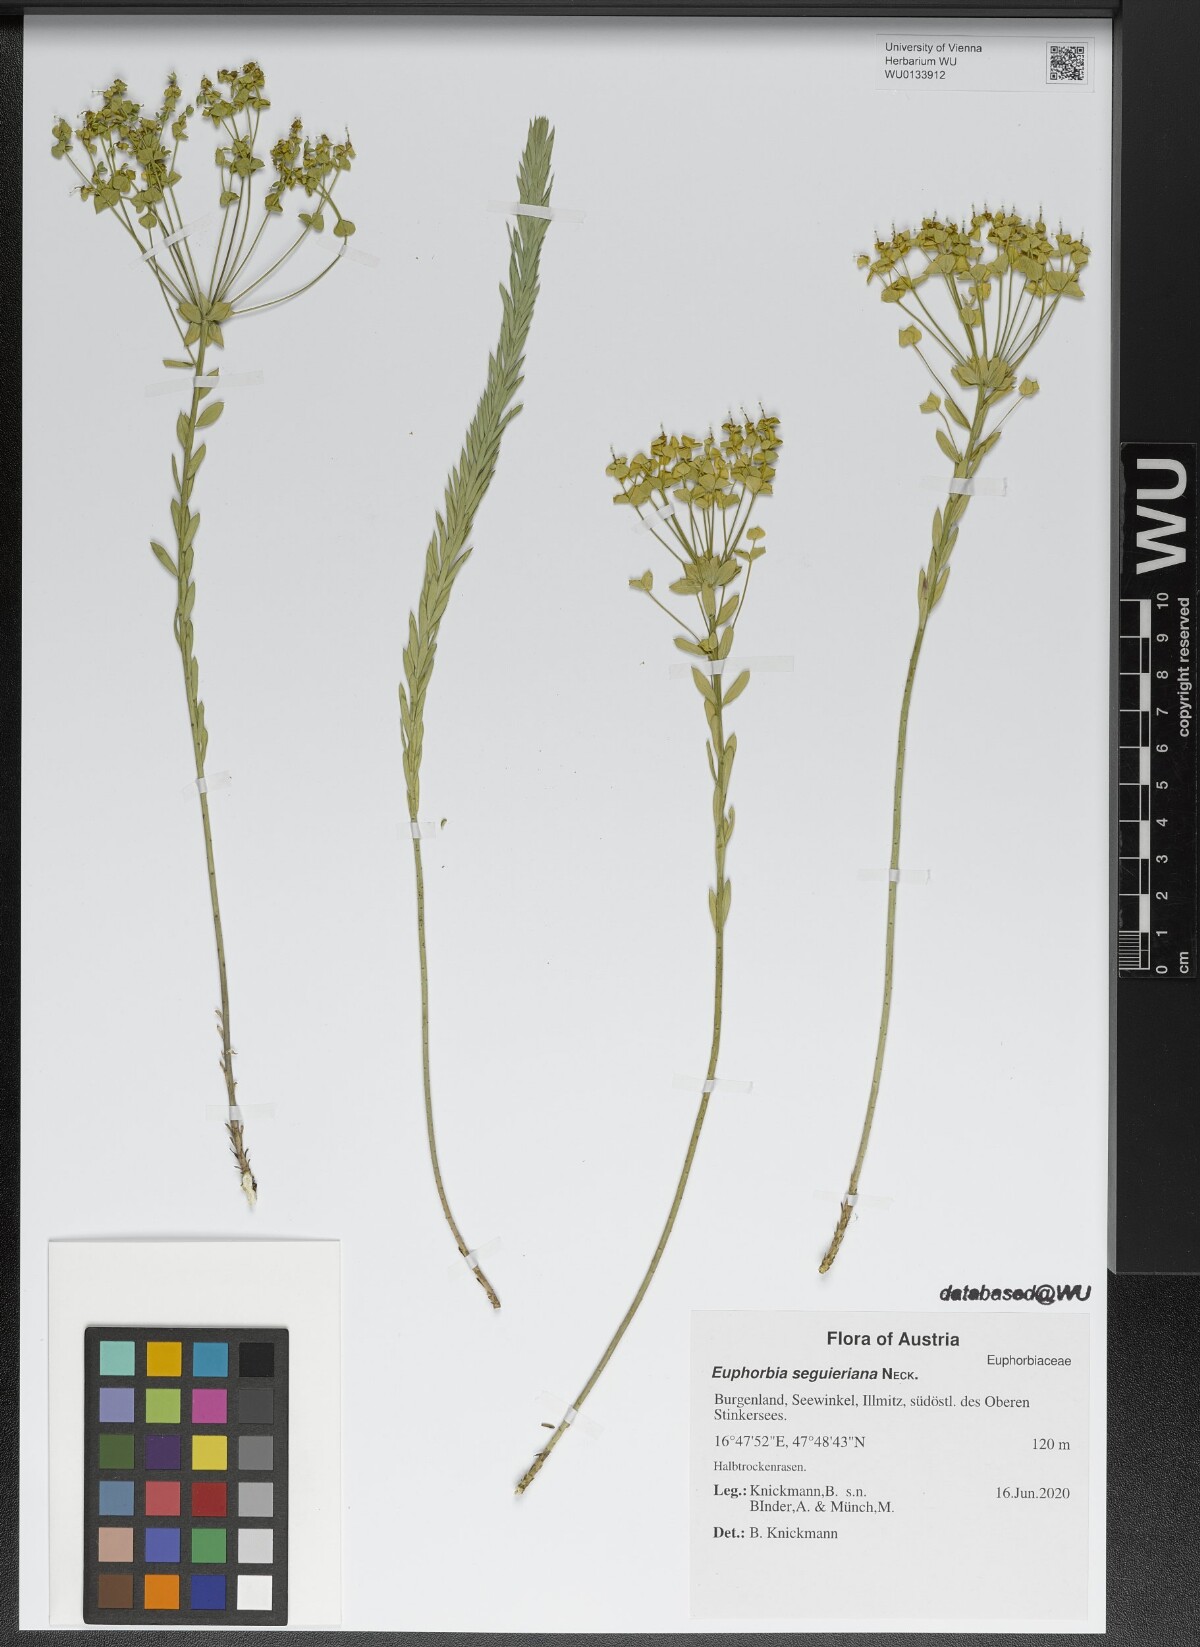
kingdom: Plantae
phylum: Tracheophyta
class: Magnoliopsida
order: Malpighiales
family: Euphorbiaceae
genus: Euphorbia
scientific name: Euphorbia seguieriana
